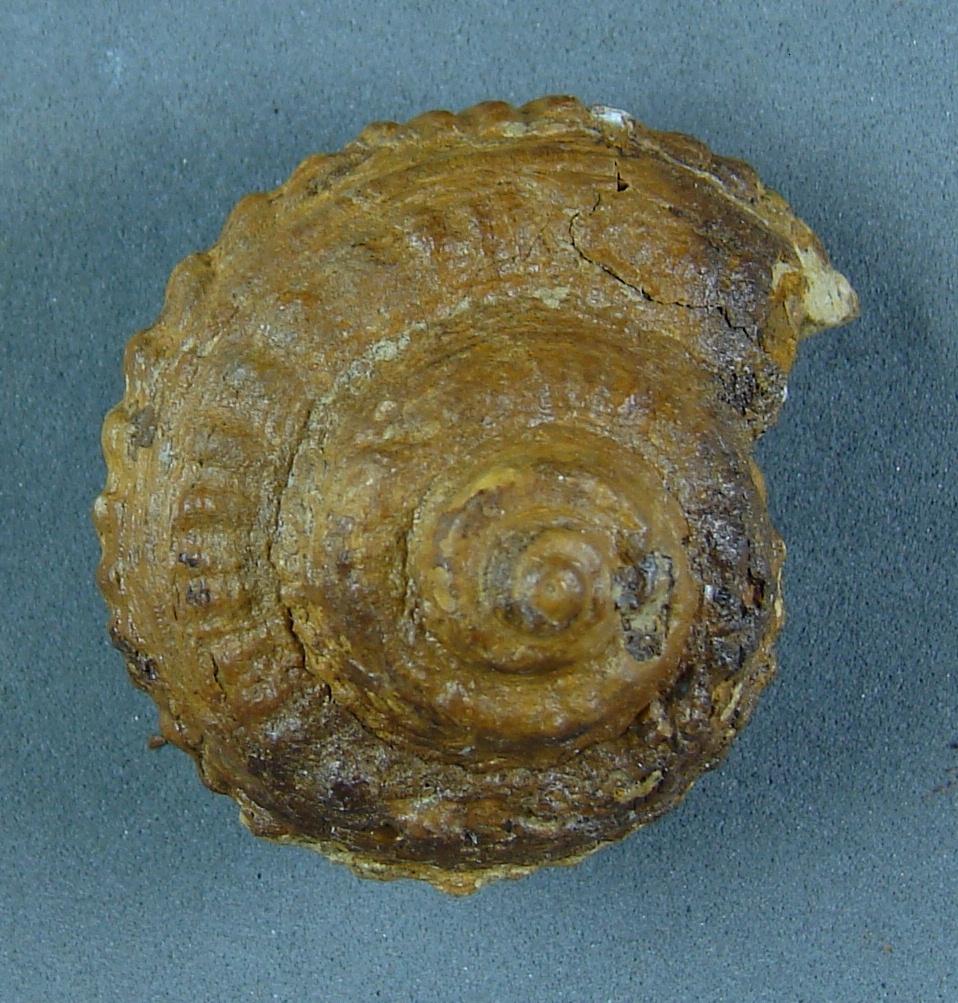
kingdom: Animalia
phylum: Mollusca
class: Gastropoda
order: Pleurotomariida
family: Pleurotomariidae
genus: Obornella
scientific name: Obornella Pleurotomaria lentiformis
